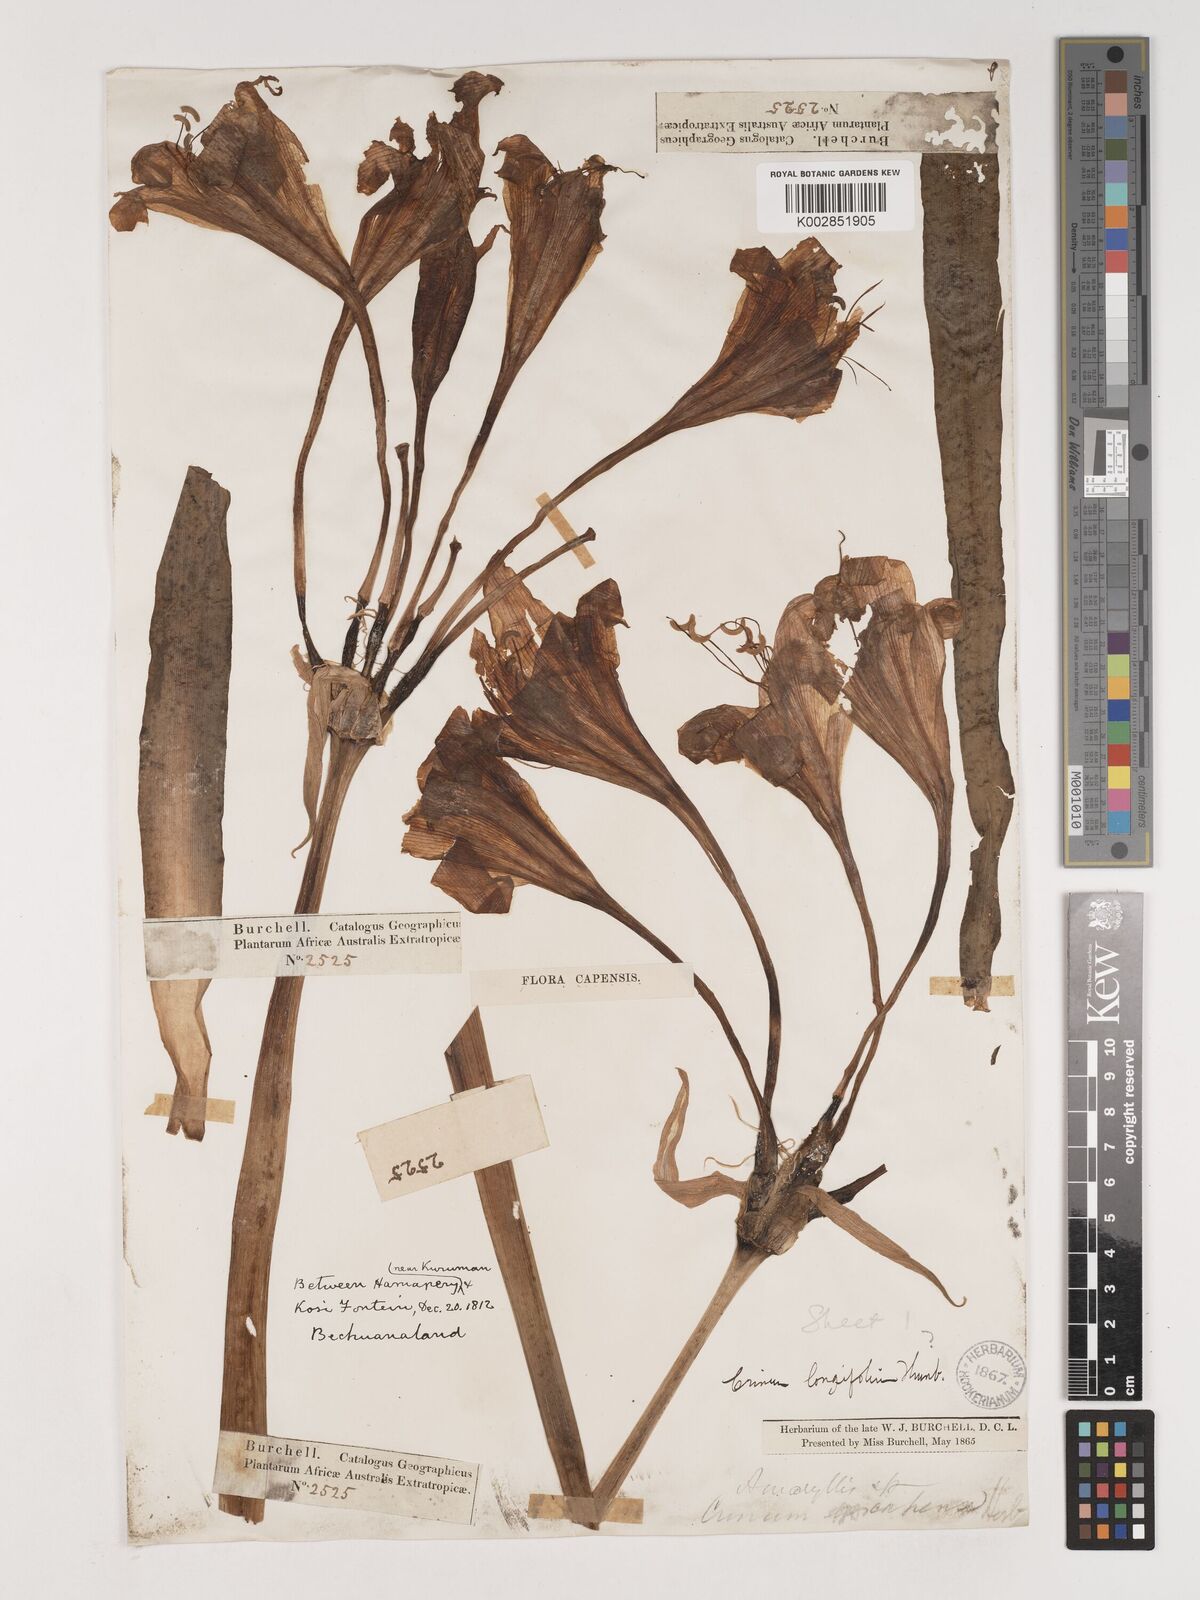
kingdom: Plantae
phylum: Tracheophyta
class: Liliopsida
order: Asparagales
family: Amaryllidaceae
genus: Crinum
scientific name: Crinum bulbispermum
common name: Hardy swamplily
